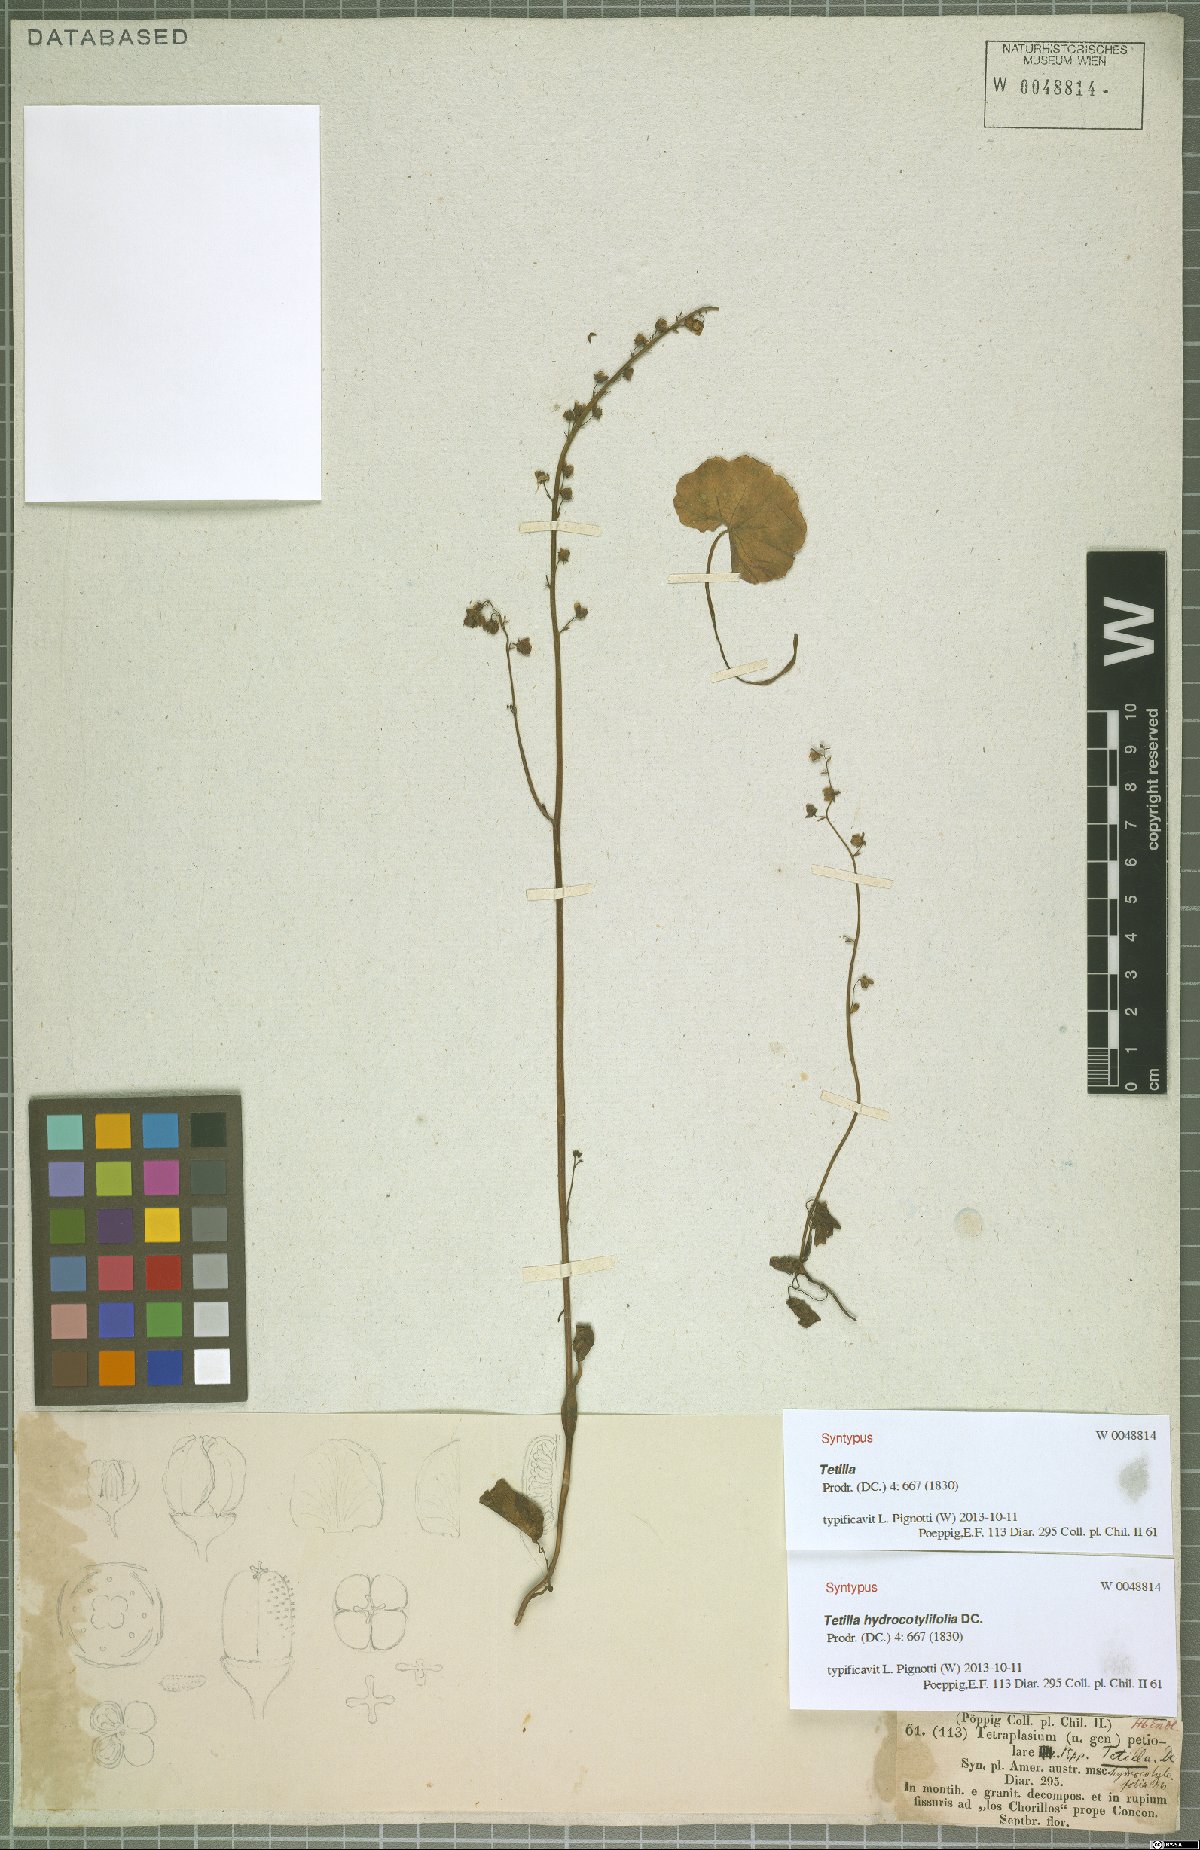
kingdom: Plantae
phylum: Tracheophyta
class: Magnoliopsida
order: Geraniales
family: Francoaceae
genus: Tetilla
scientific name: Tetilla hydrocotylifolia
